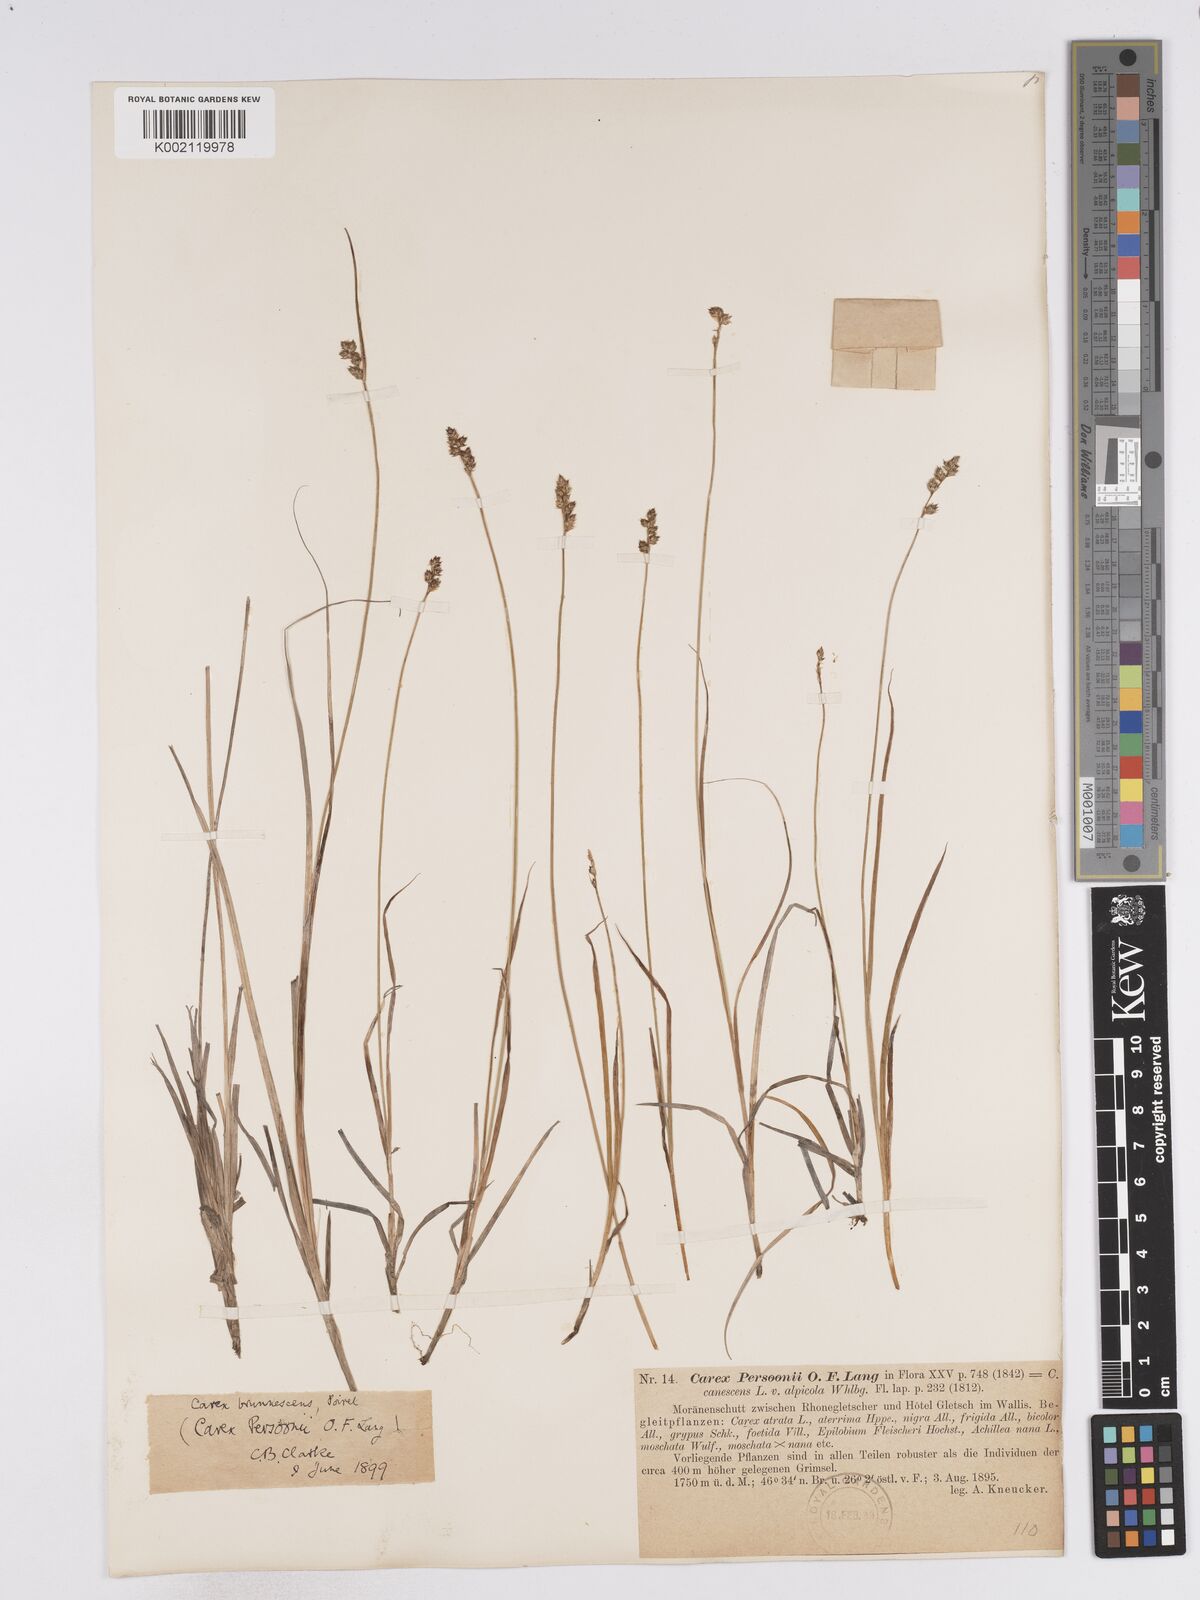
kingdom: Plantae
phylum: Tracheophyta
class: Liliopsida
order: Poales
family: Cyperaceae
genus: Carex
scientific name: Carex canescens
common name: White sedge
